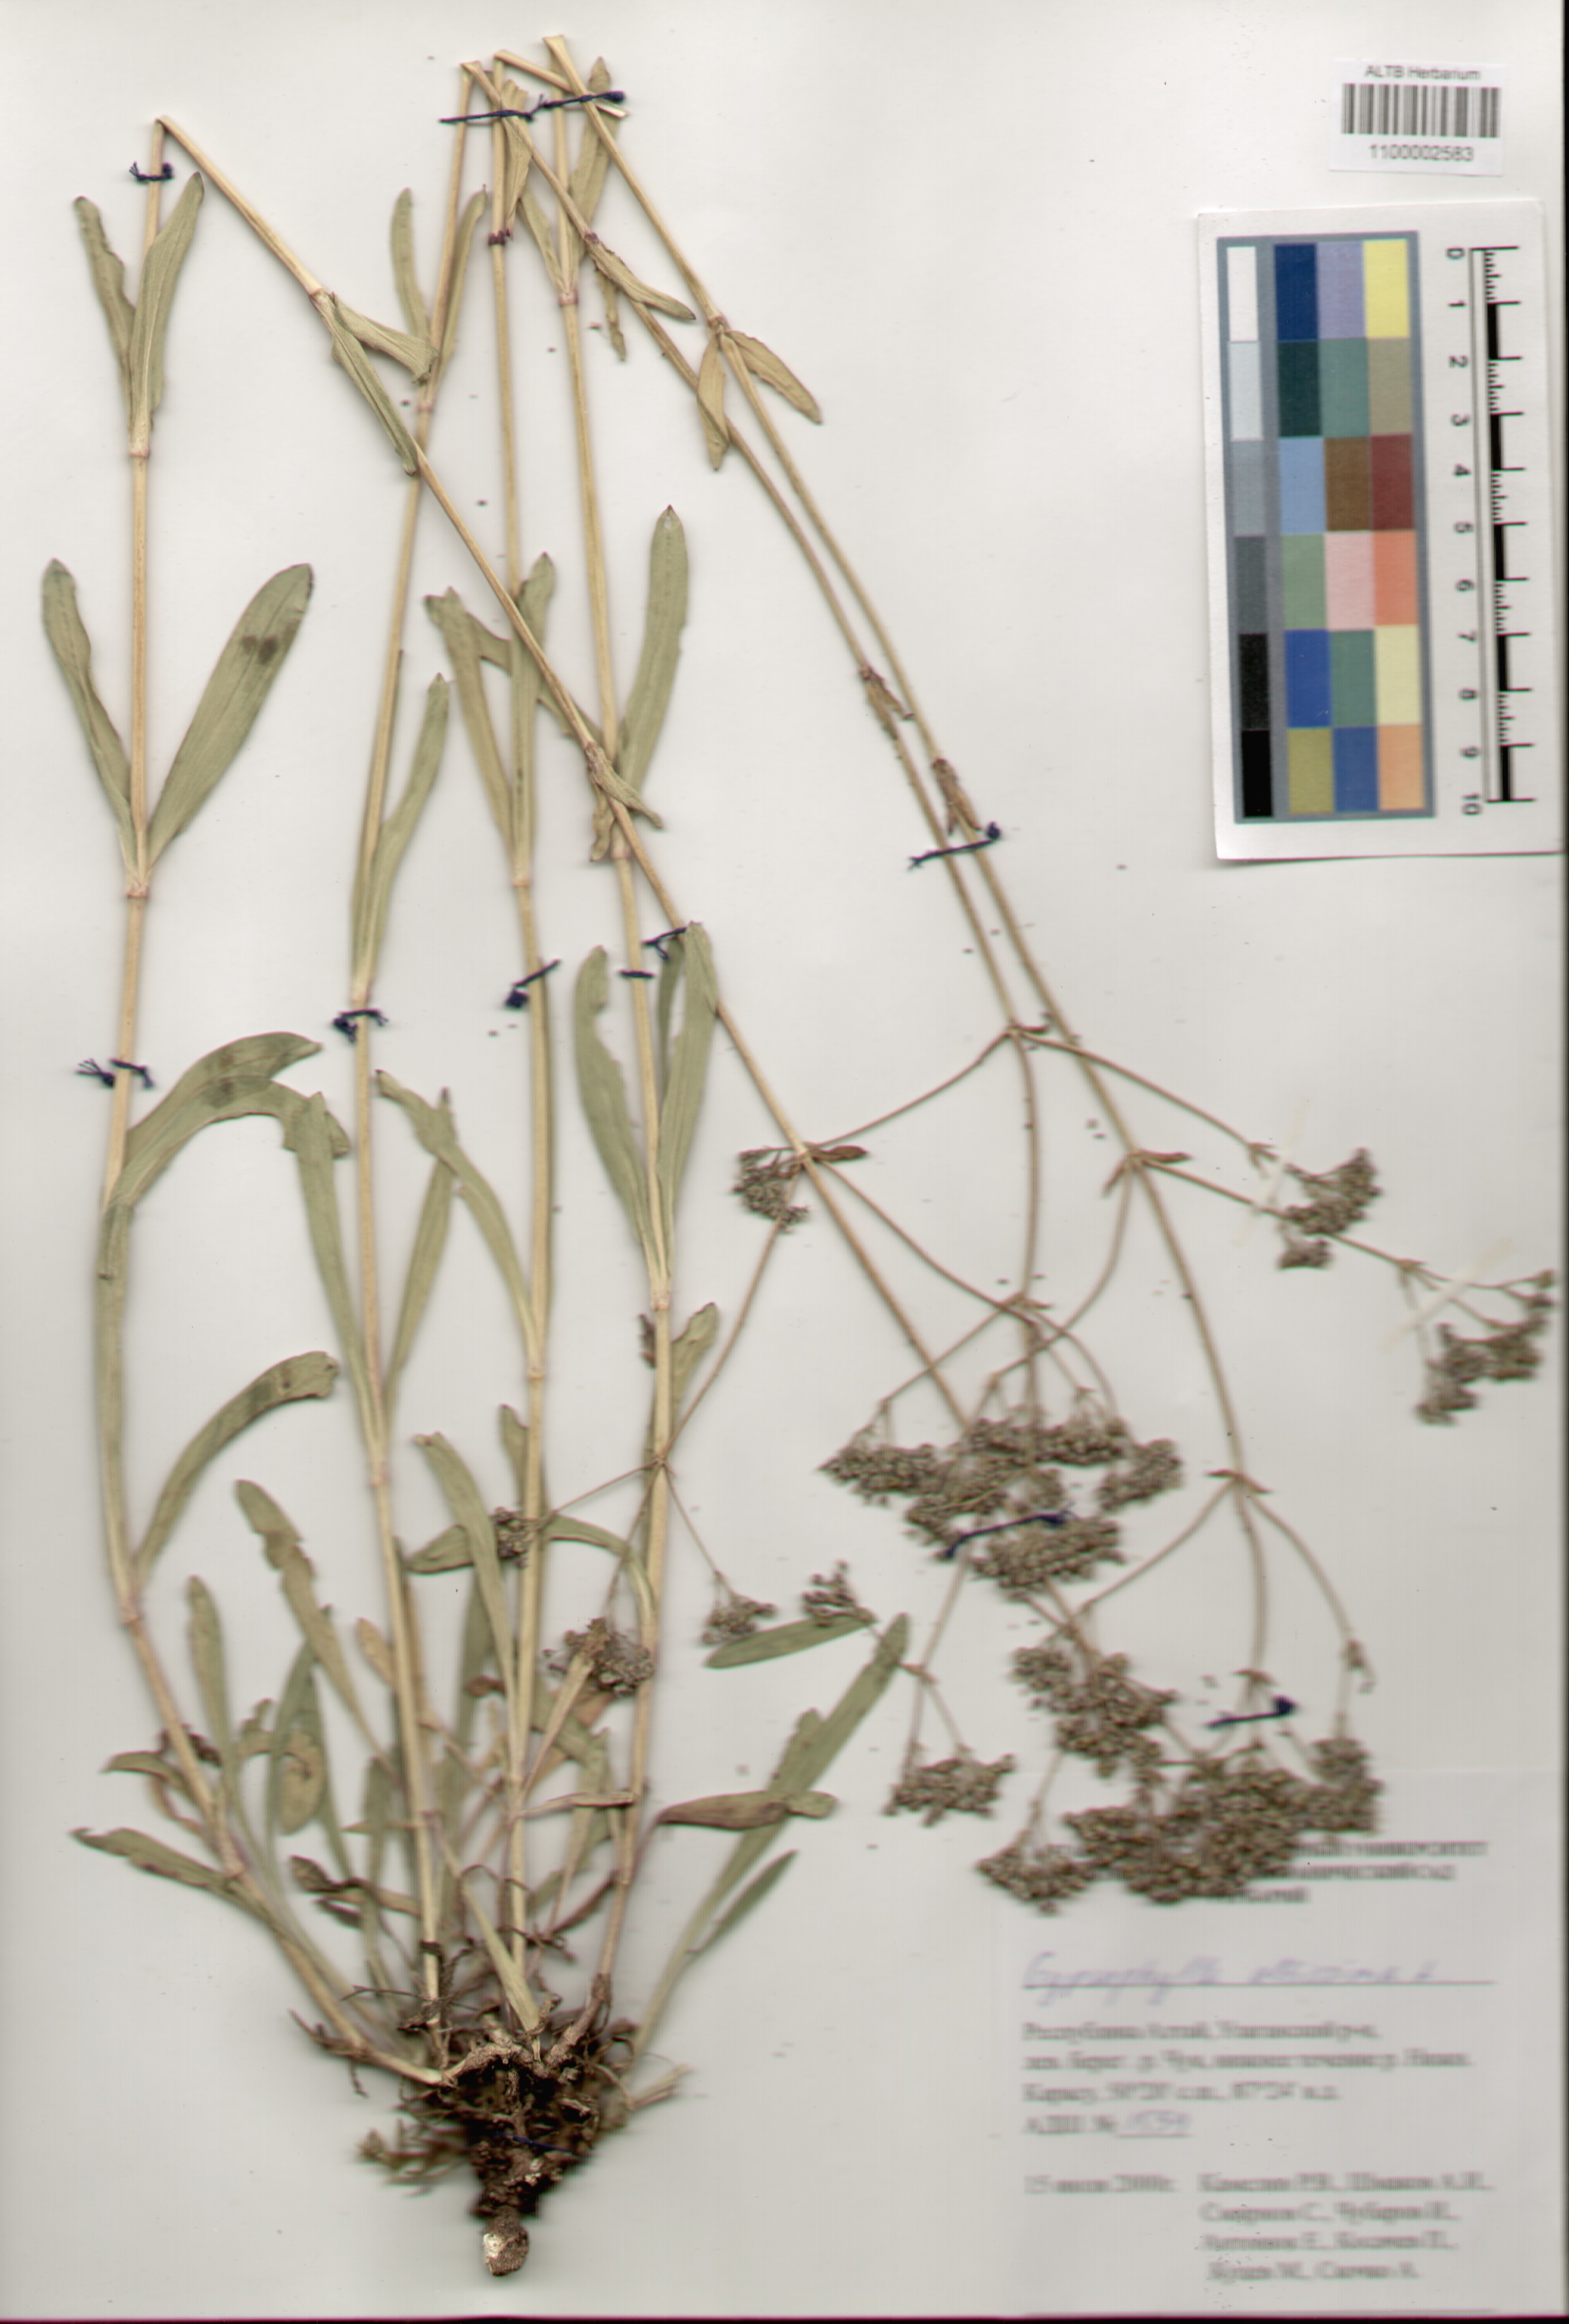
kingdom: Plantae
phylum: Tracheophyta
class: Magnoliopsida
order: Caryophyllales
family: Caryophyllaceae
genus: Gypsophila
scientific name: Gypsophila altissima
